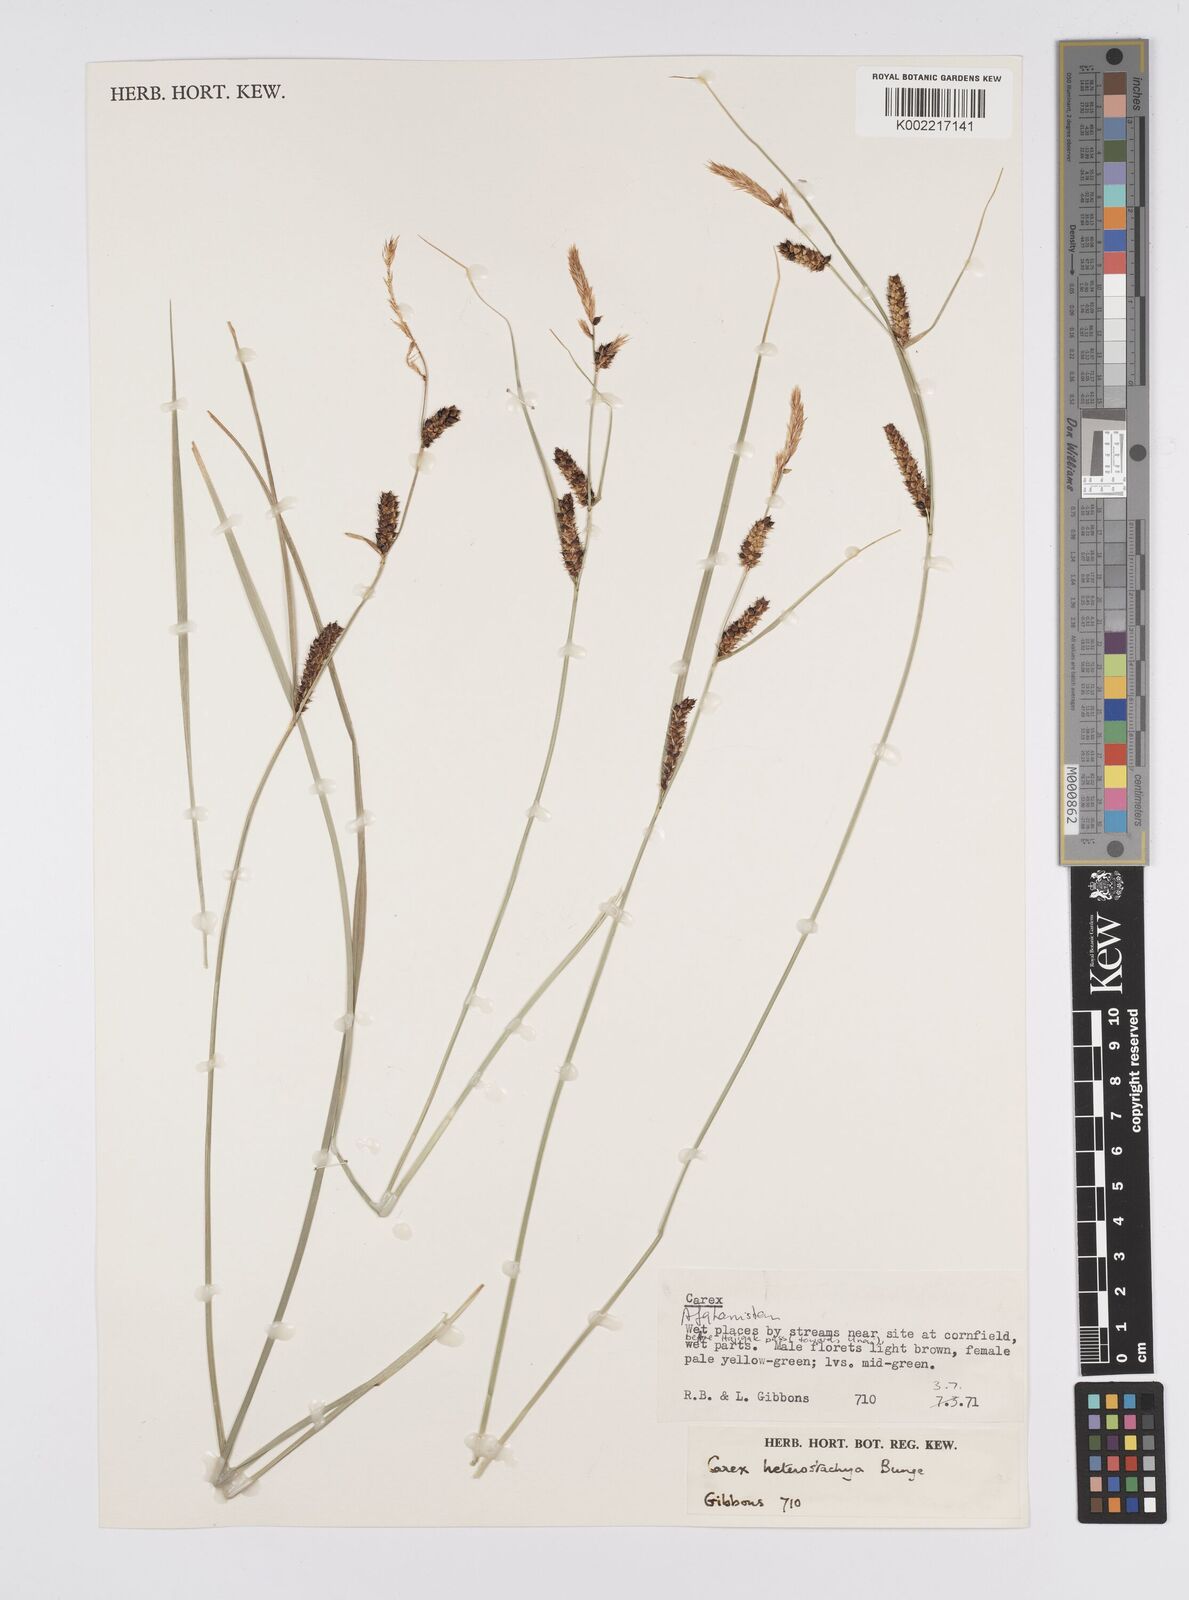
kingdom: Plantae
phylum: Tracheophyta
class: Liliopsida
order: Poales
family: Cyperaceae
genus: Carex
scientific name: Carex heterostachya
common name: Different-spike sedge
